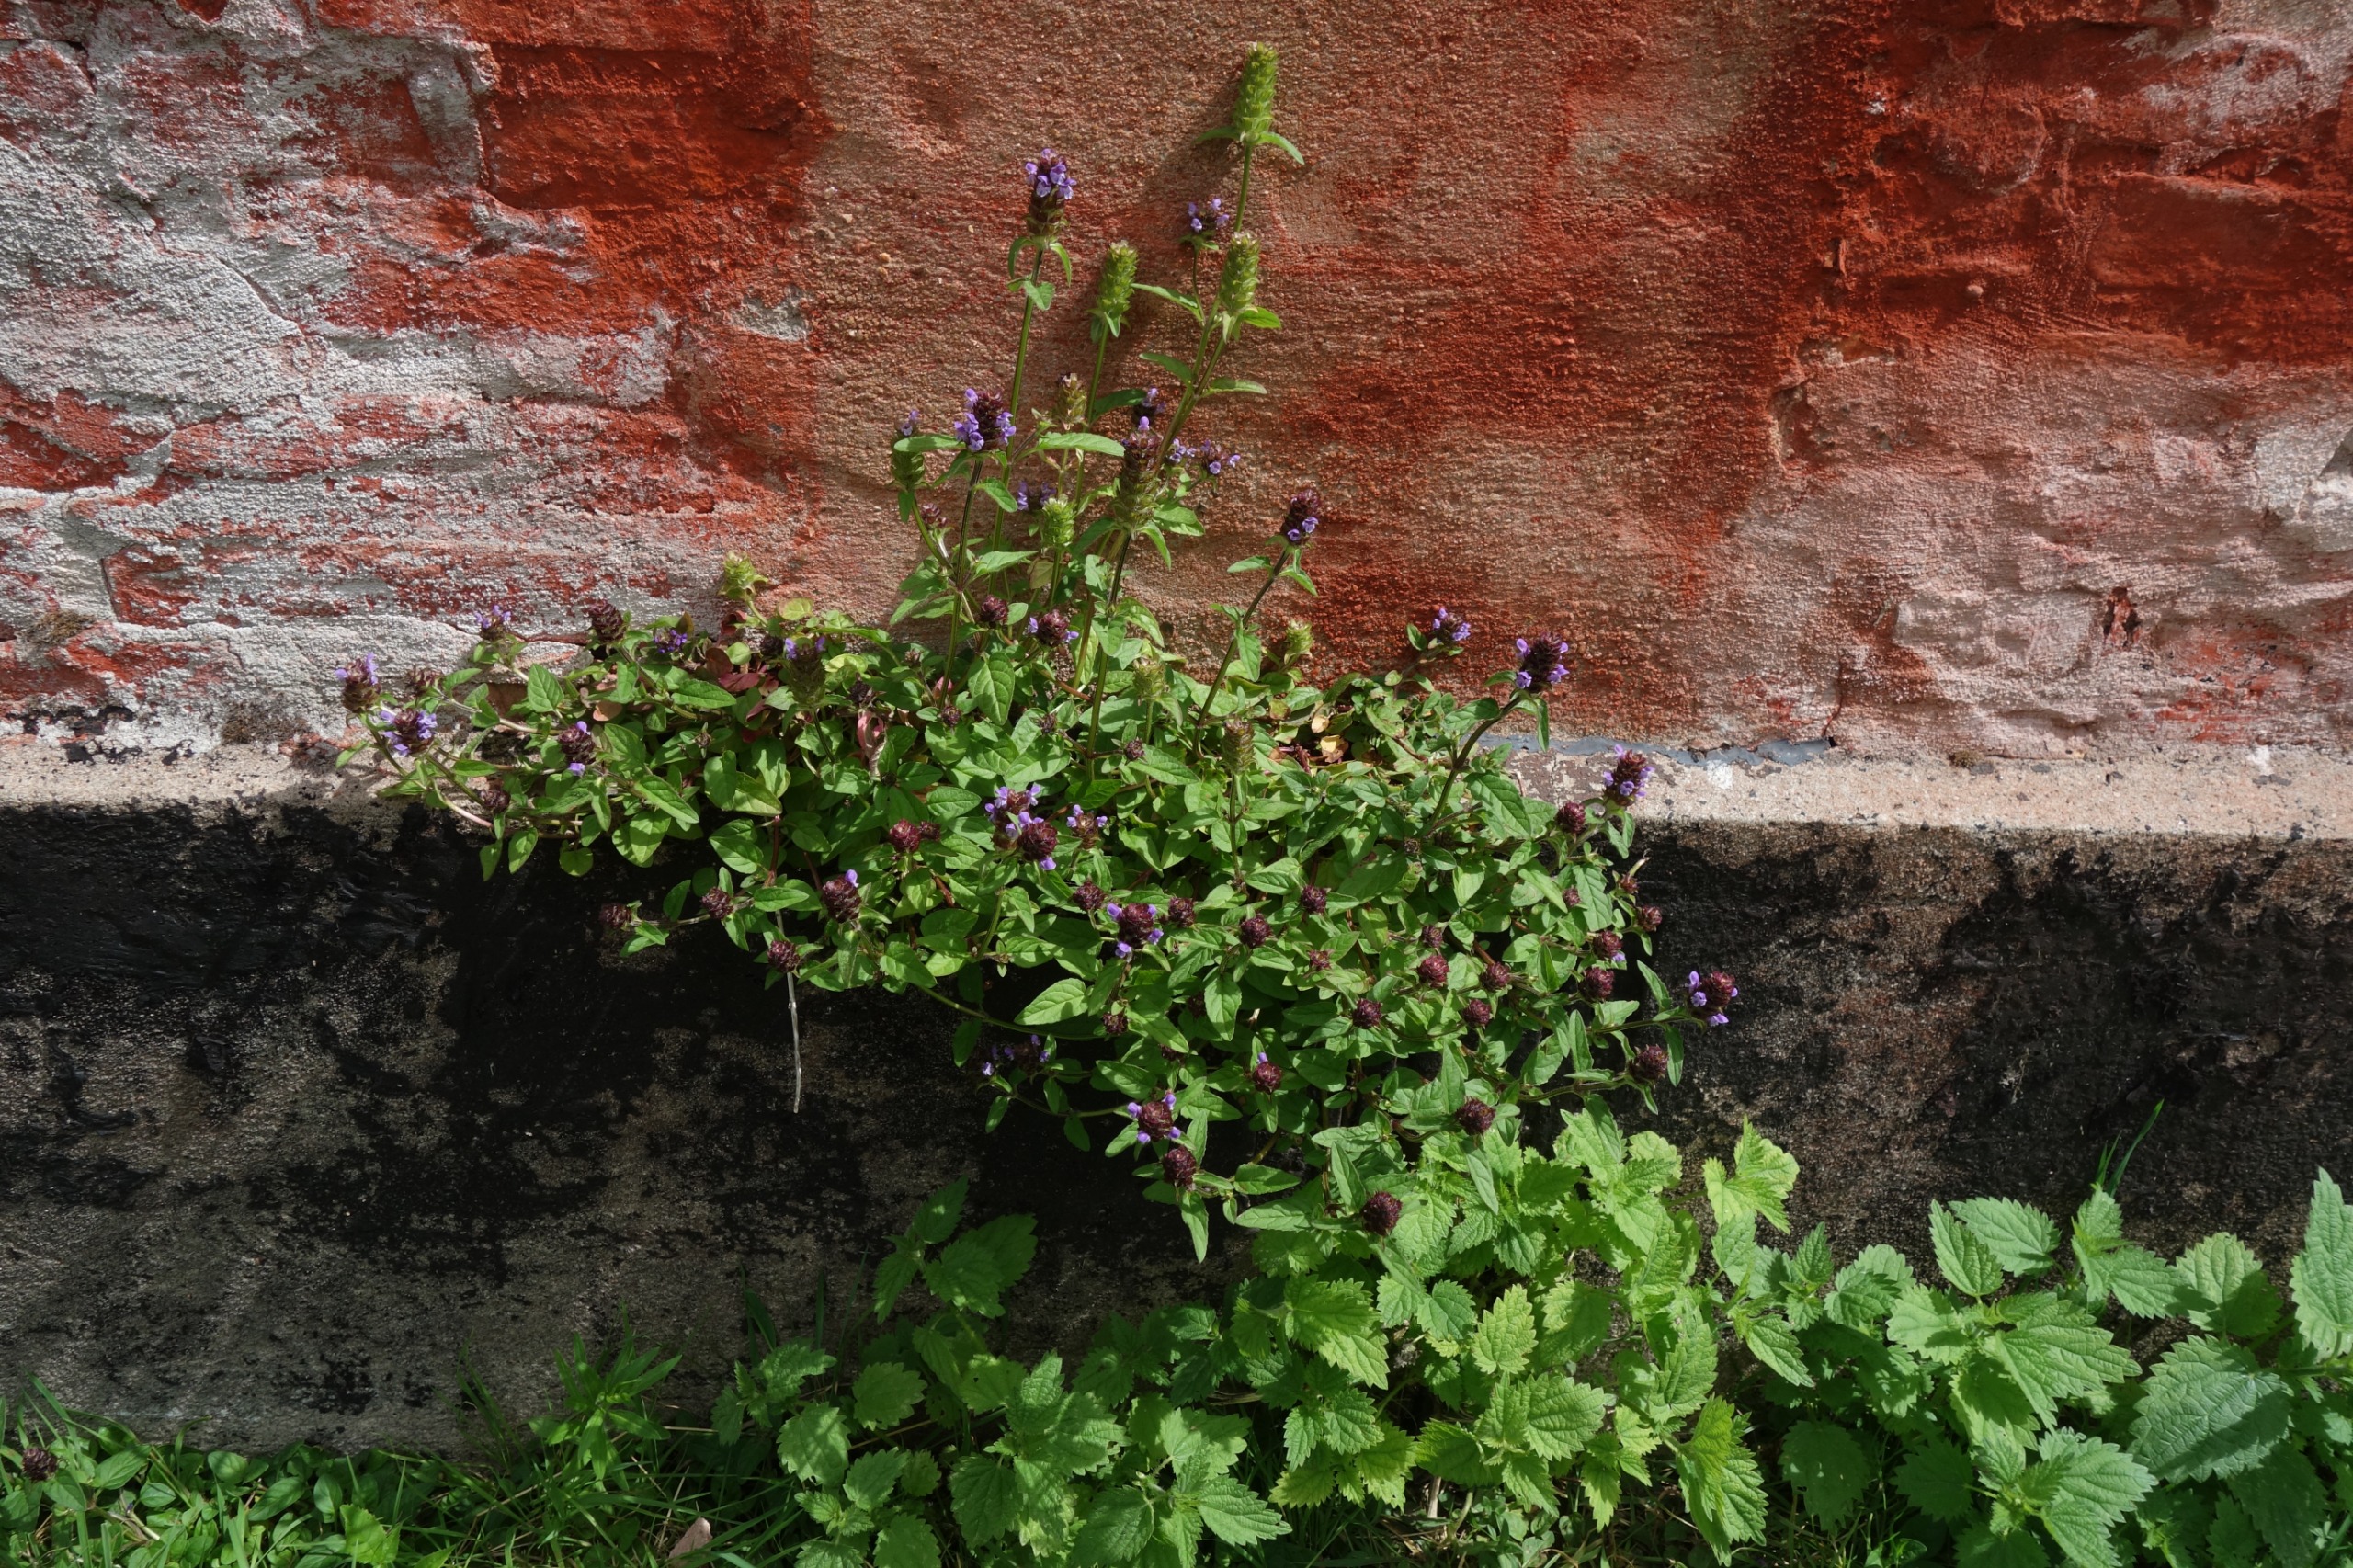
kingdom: Plantae
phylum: Tracheophyta
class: Magnoliopsida
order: Lamiales
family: Lamiaceae
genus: Prunella
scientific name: Prunella vulgaris
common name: Almindelig brunelle
